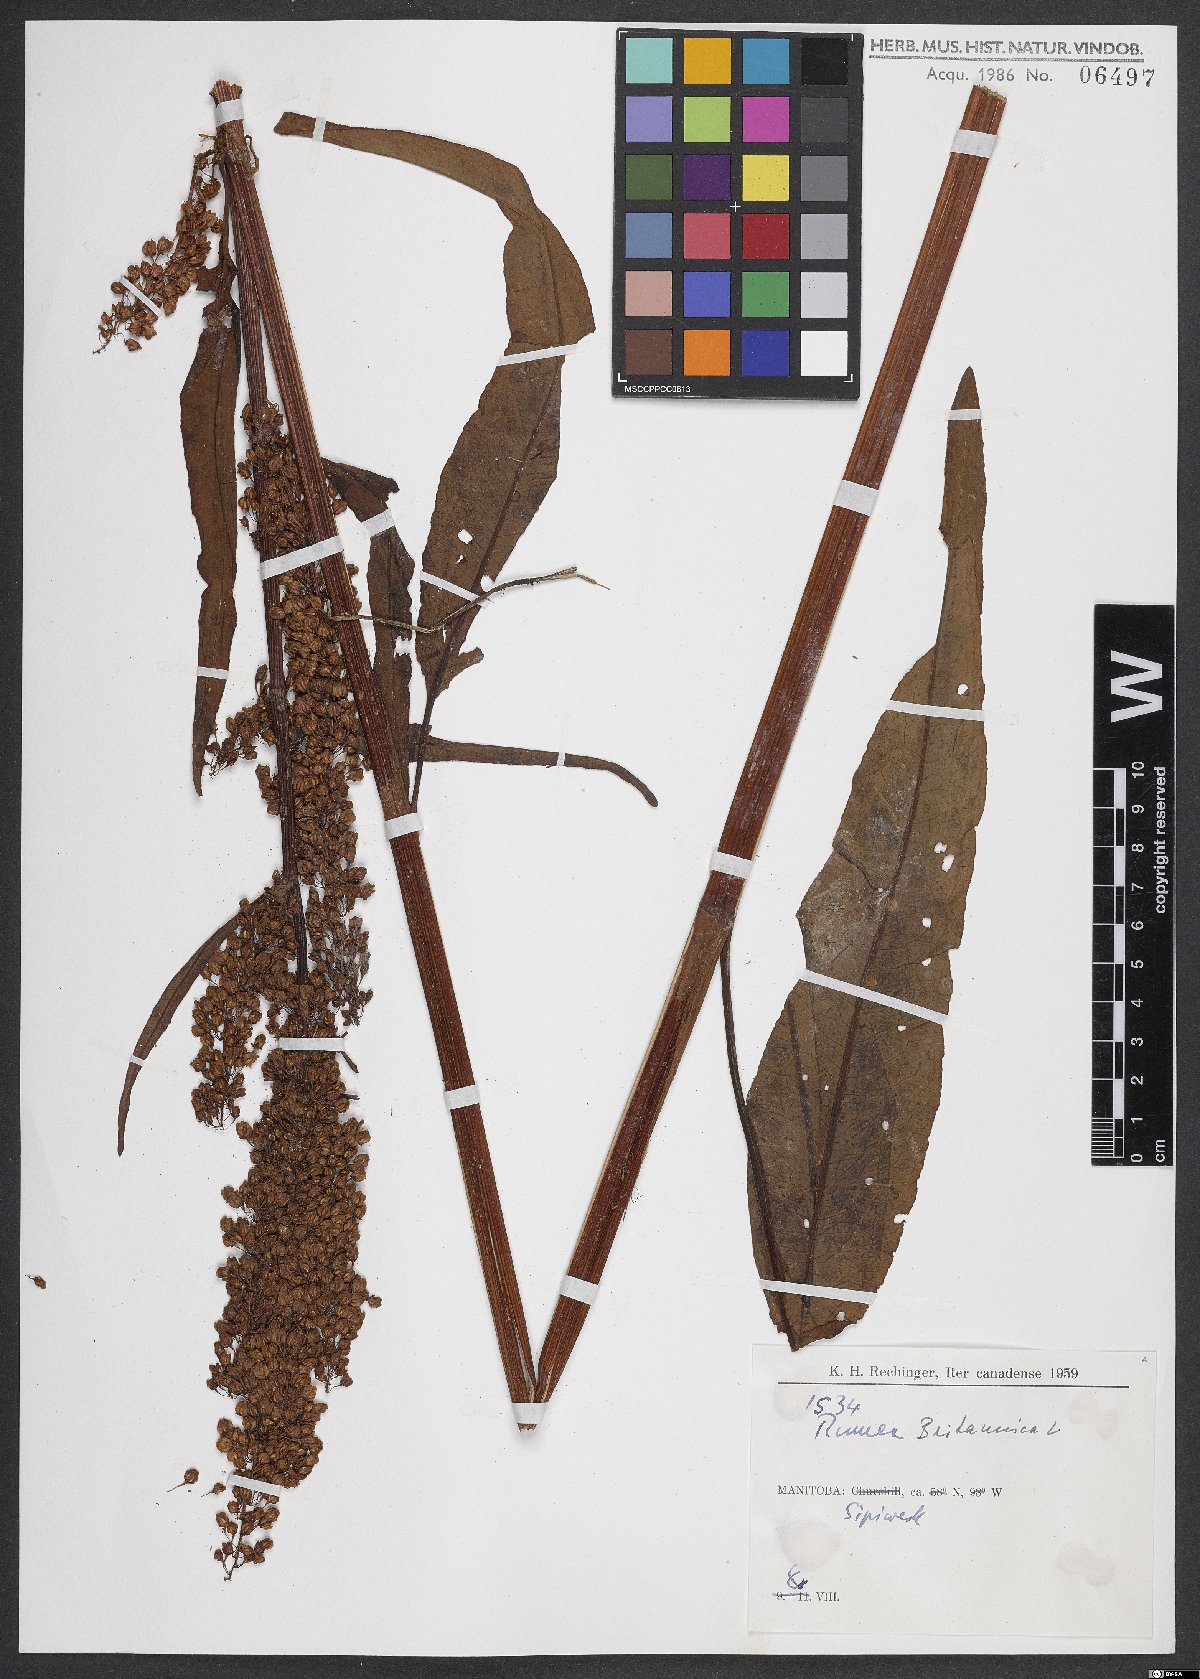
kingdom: Plantae
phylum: Tracheophyta
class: Magnoliopsida
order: Caryophyllales
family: Polygonaceae
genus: Rumex
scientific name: Rumex britannica
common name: British dock
